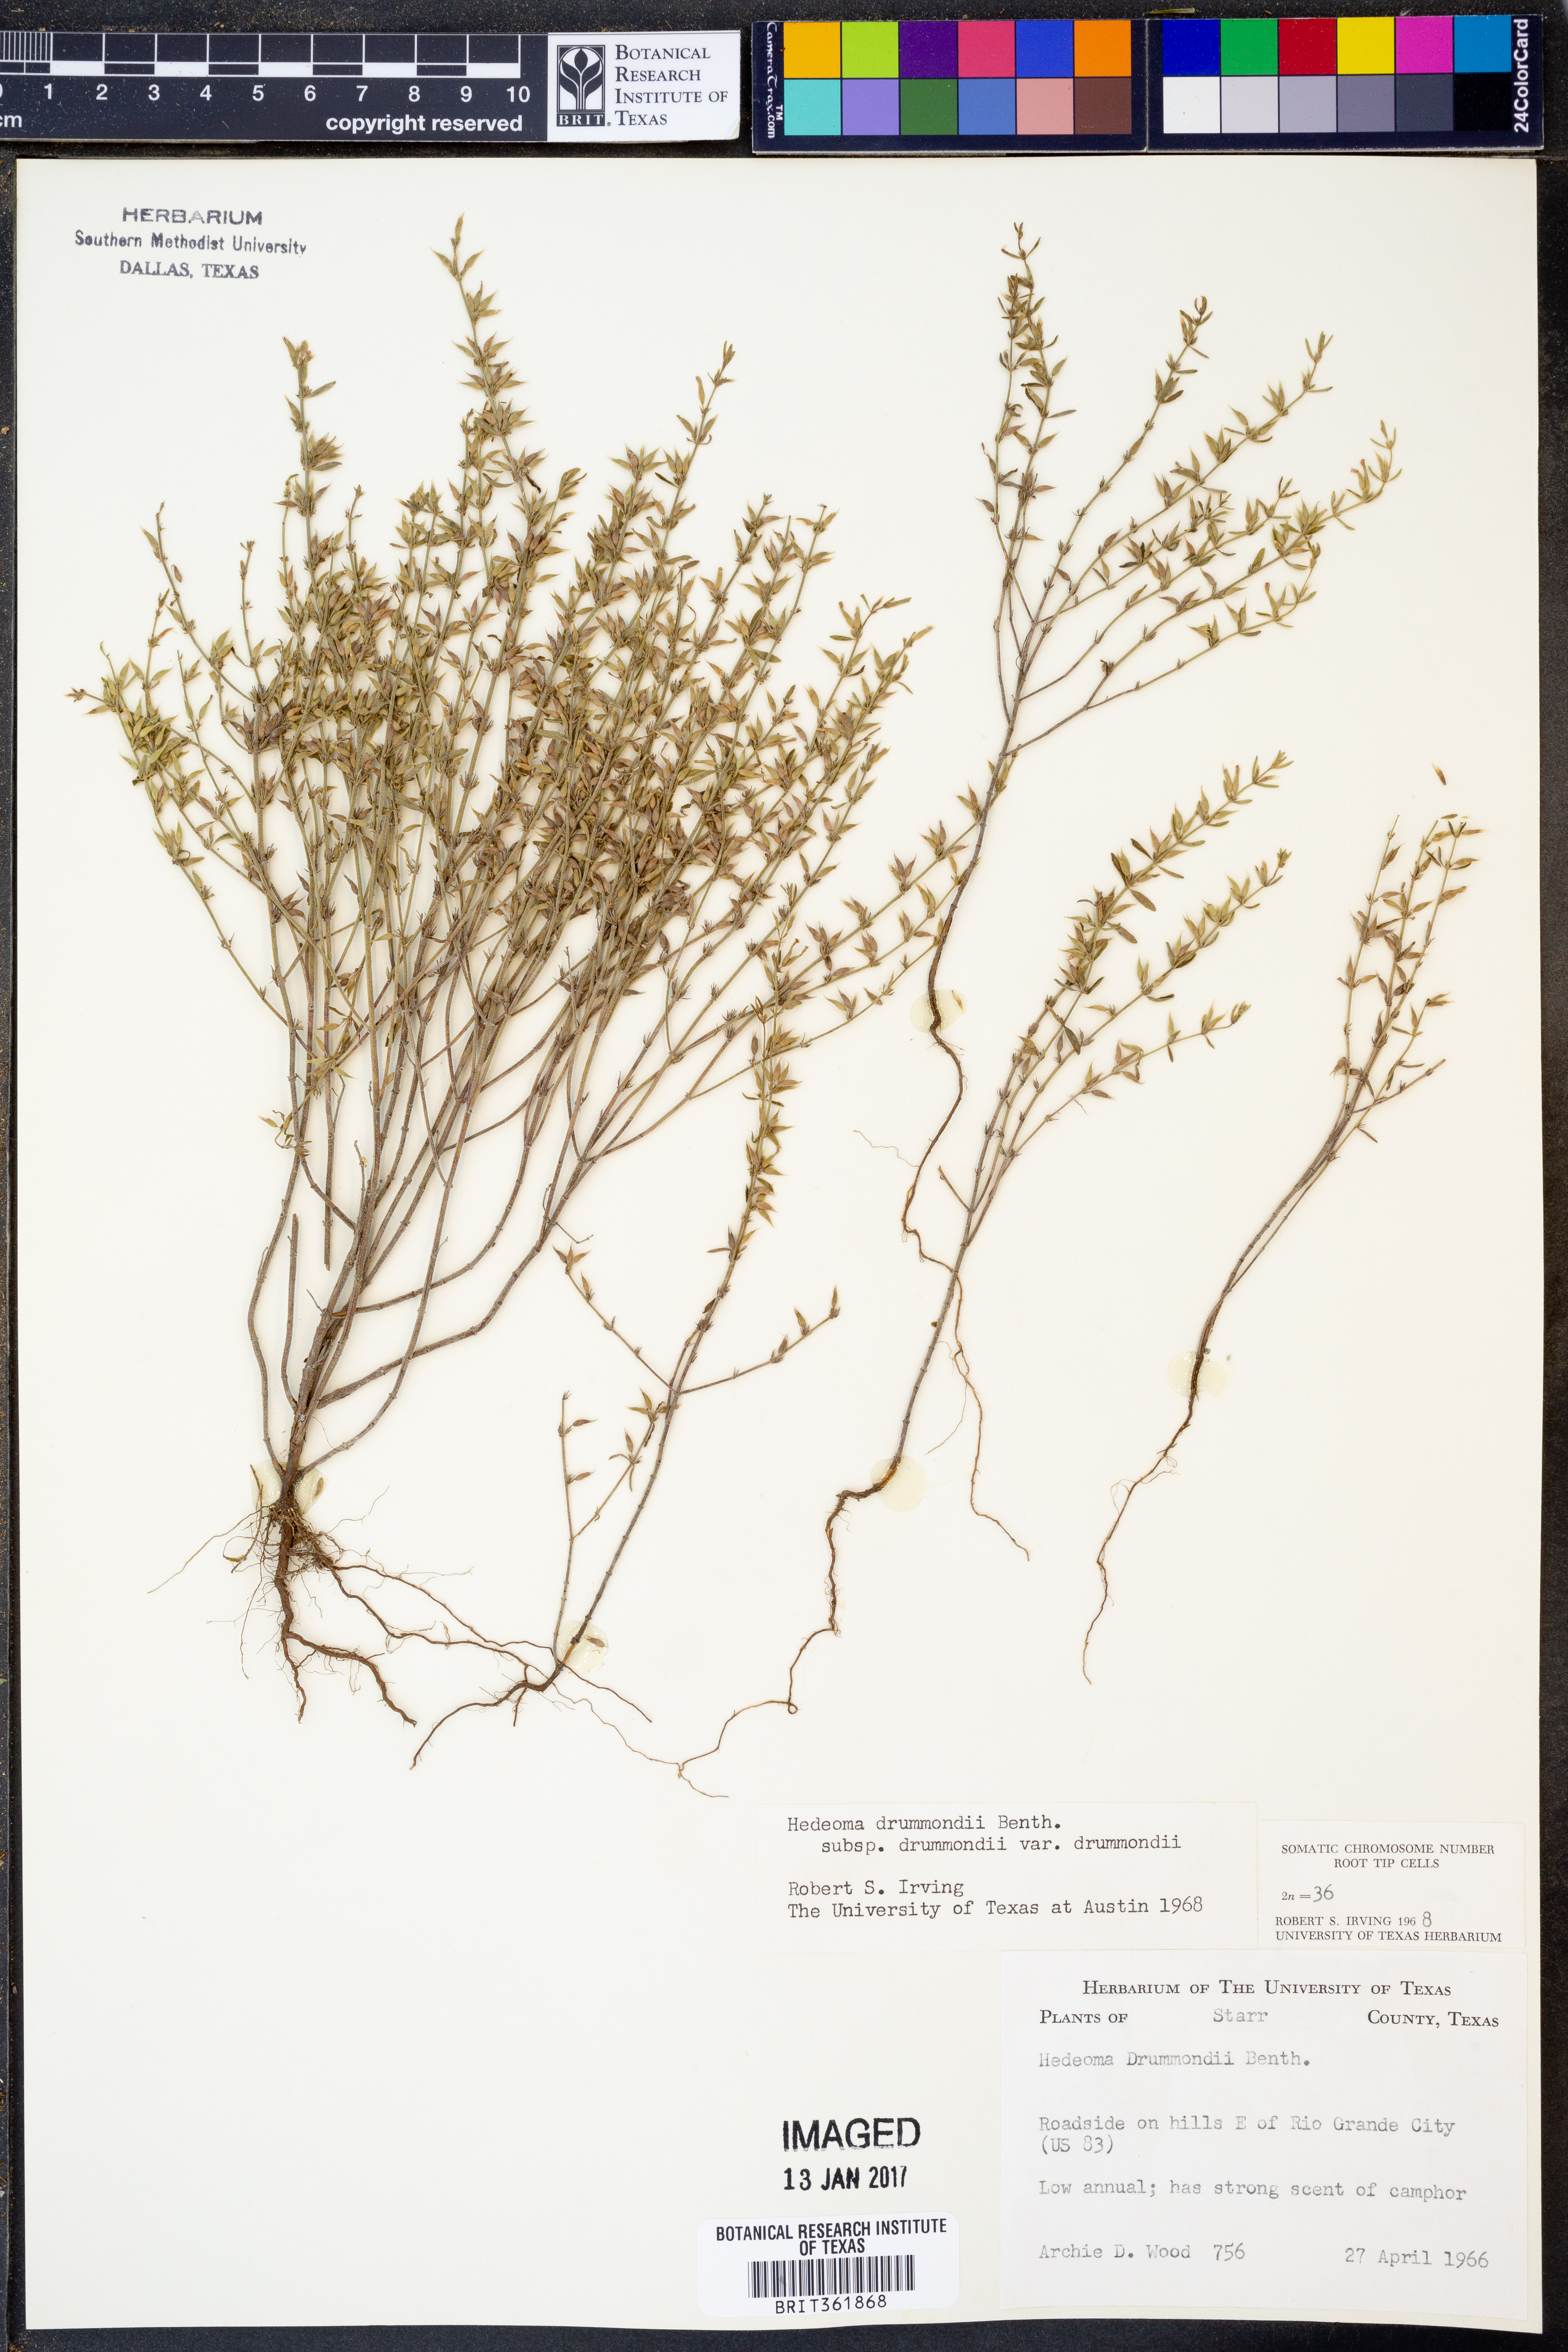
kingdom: Plantae
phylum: Tracheophyta
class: Magnoliopsida
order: Lamiales
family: Lamiaceae
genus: Hedeoma
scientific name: Hedeoma drummondii
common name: New mexico pennyroyal
